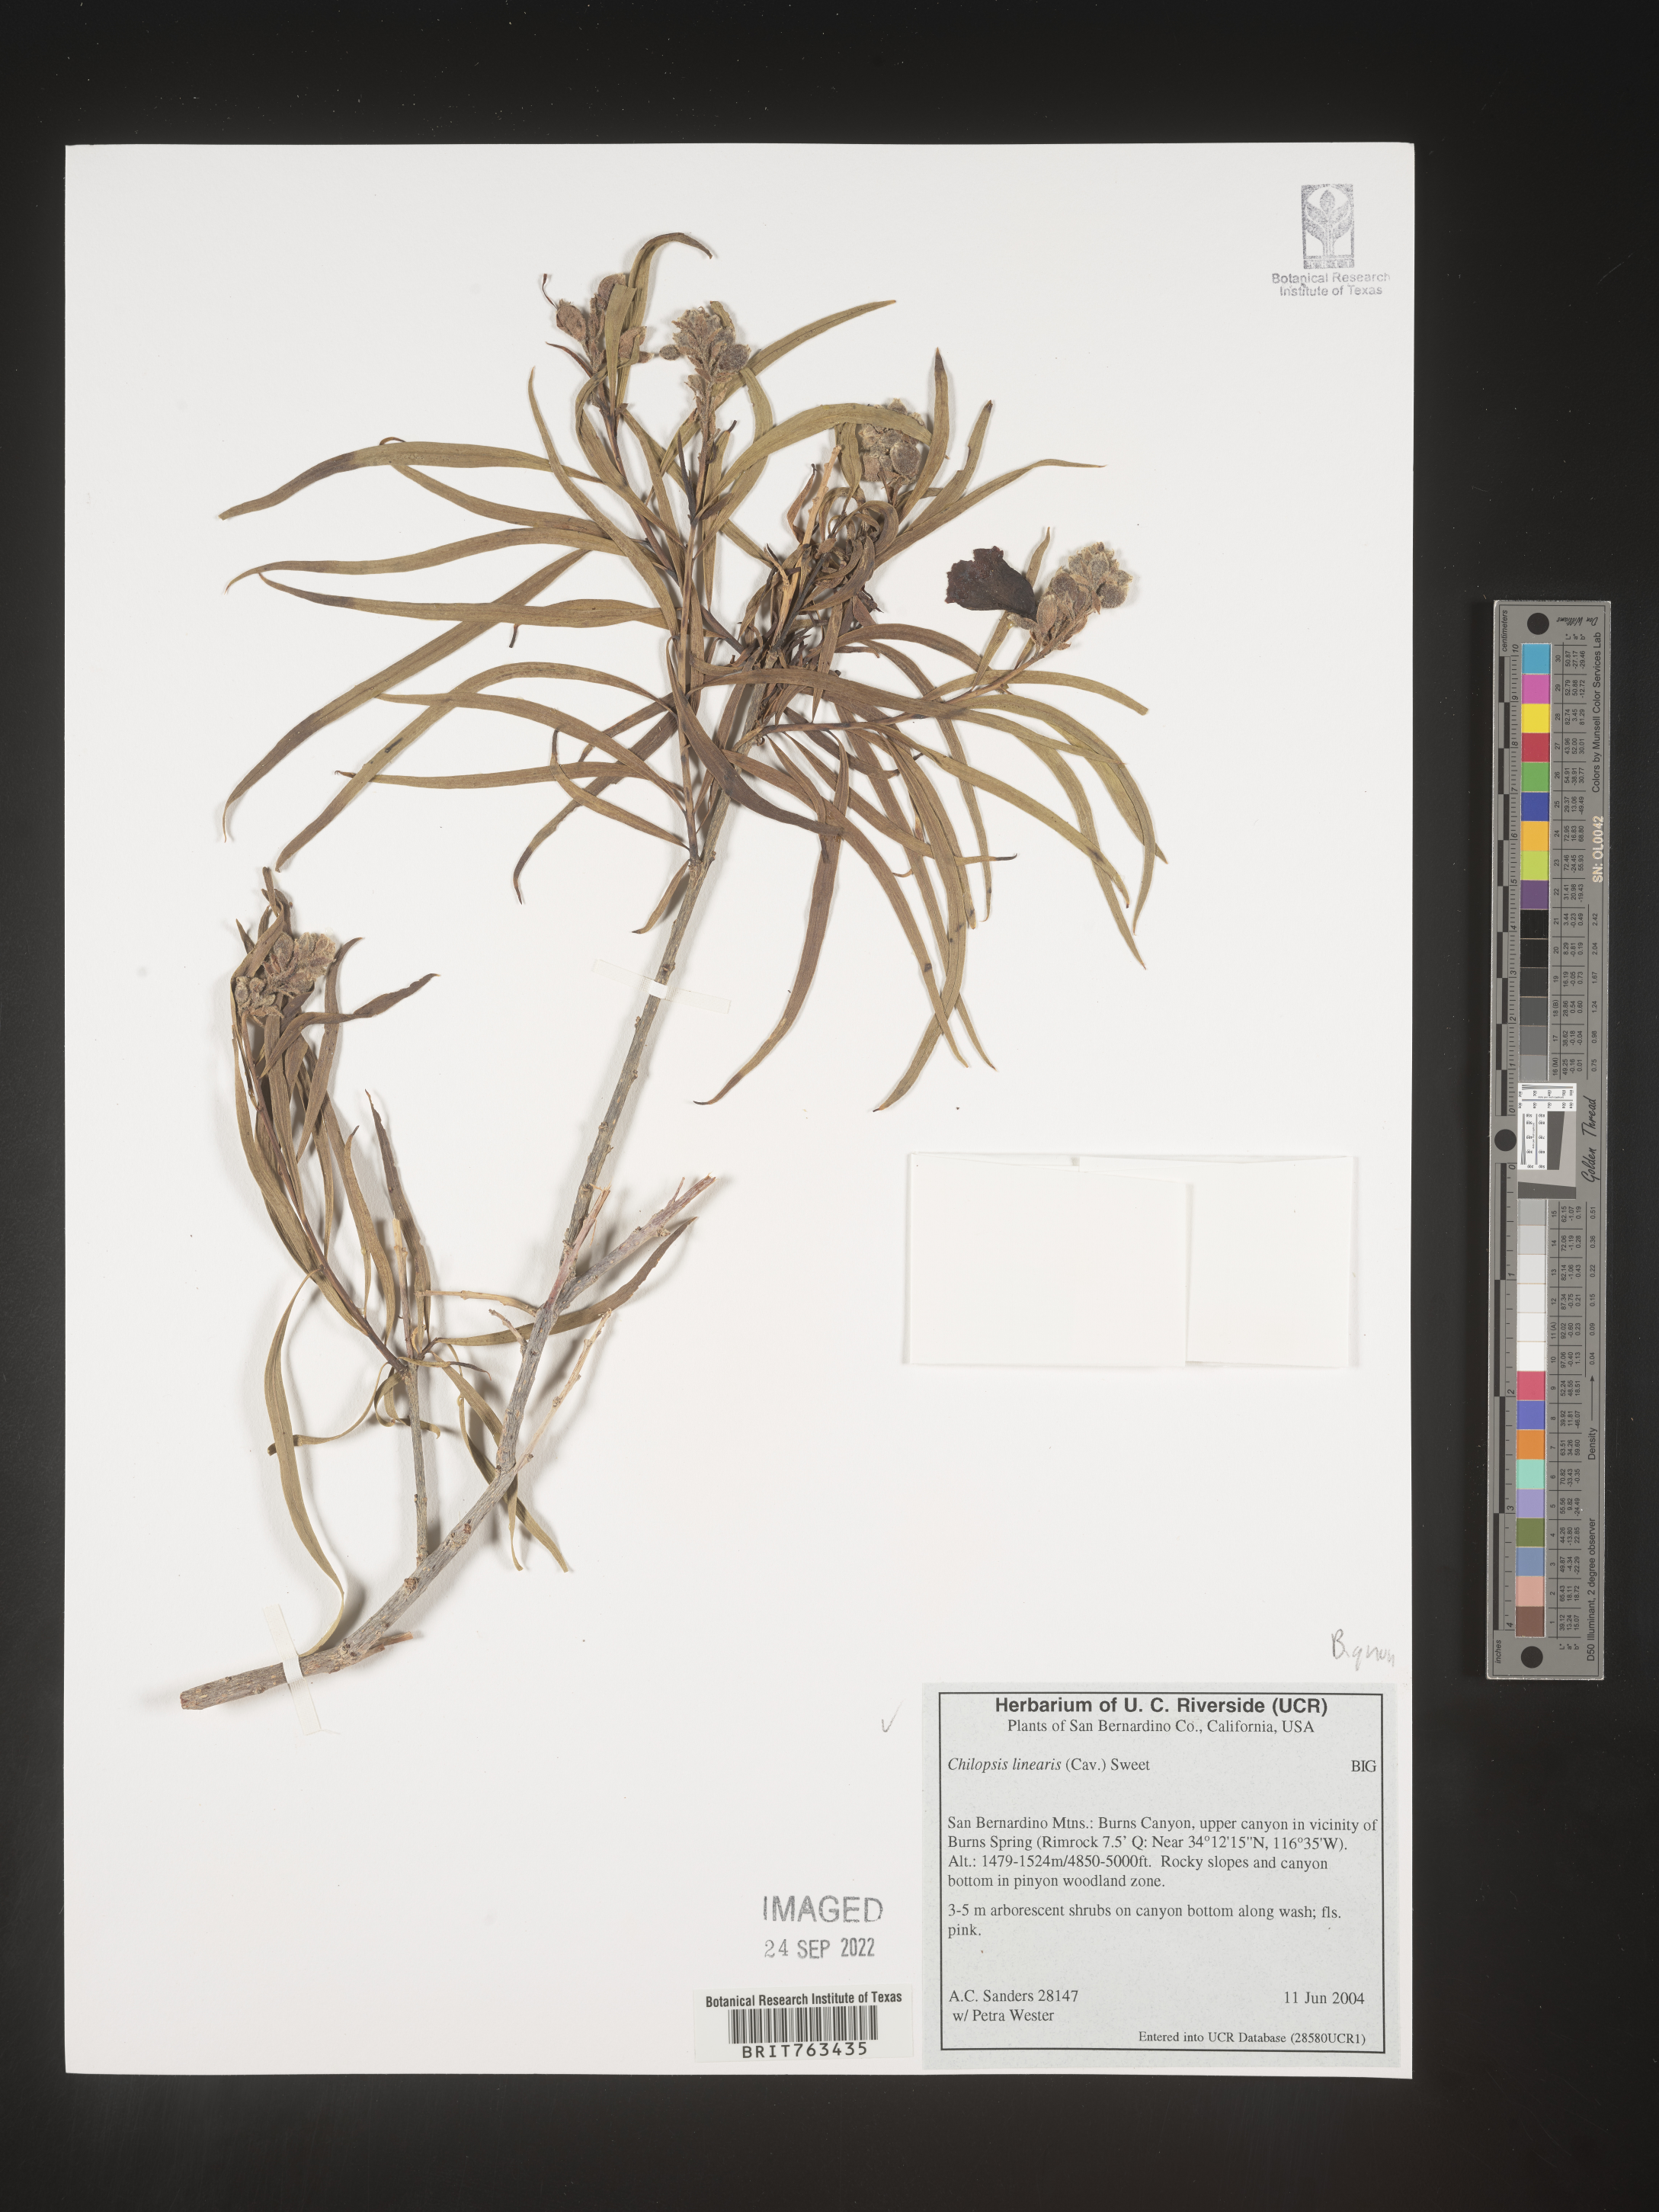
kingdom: Plantae
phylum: Tracheophyta
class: Magnoliopsida
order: Lamiales
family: Bignoniaceae
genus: Chilopsis
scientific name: Chilopsis linearis
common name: Desert-willow
